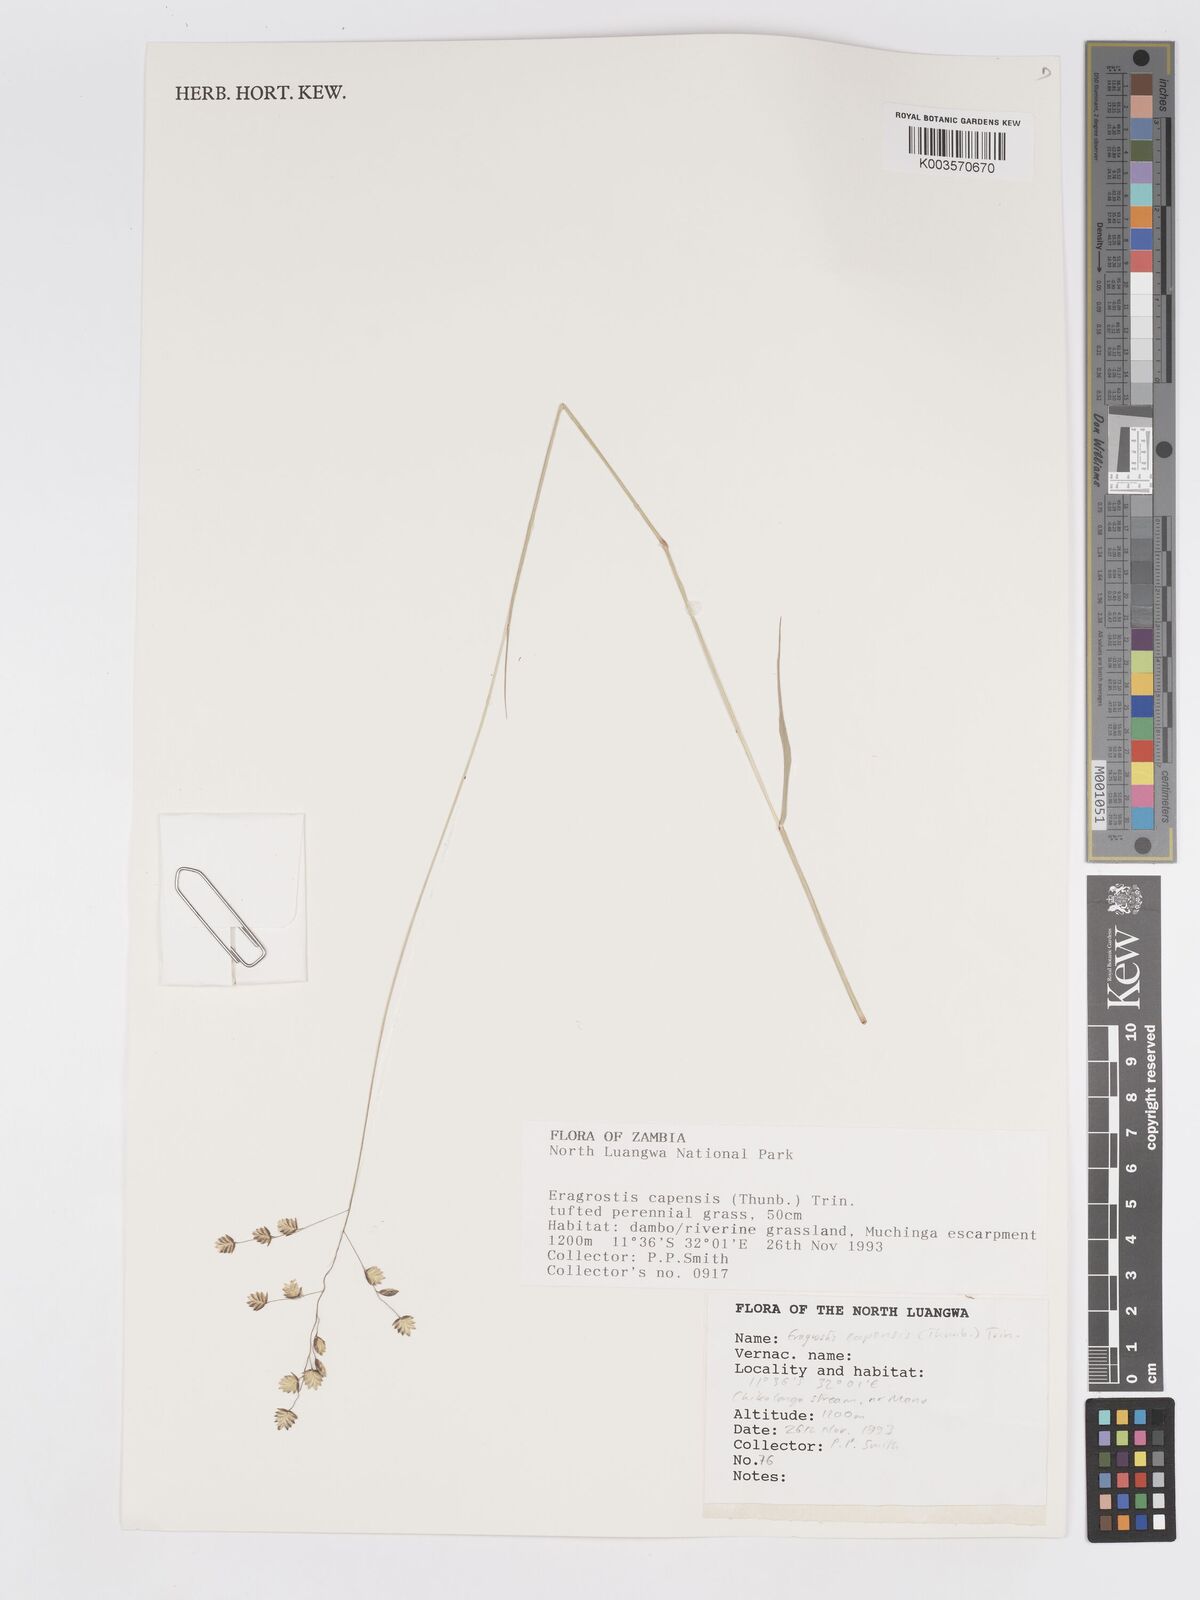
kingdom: Plantae
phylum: Tracheophyta
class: Liliopsida
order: Poales
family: Poaceae
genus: Eragrostis
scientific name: Eragrostis capensis
